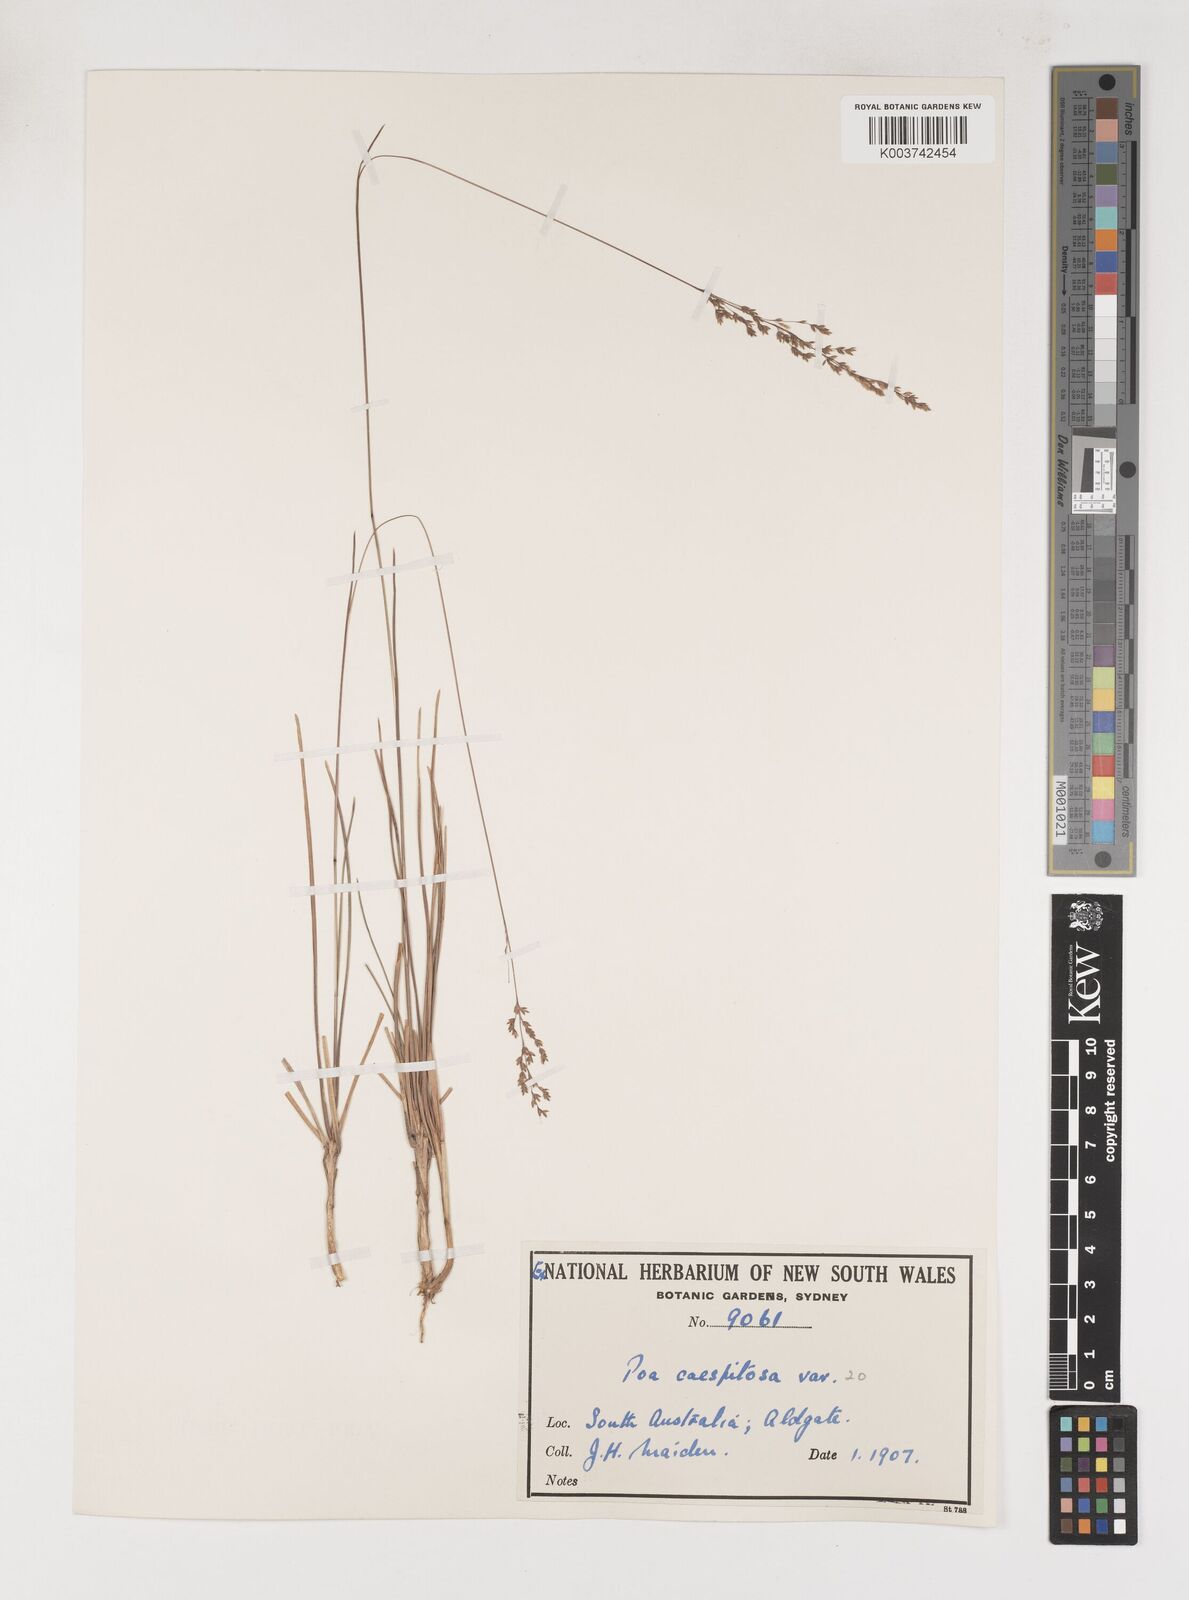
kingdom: Plantae
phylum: Tracheophyta
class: Liliopsida
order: Poales
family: Poaceae
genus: Poa
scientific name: Poa
